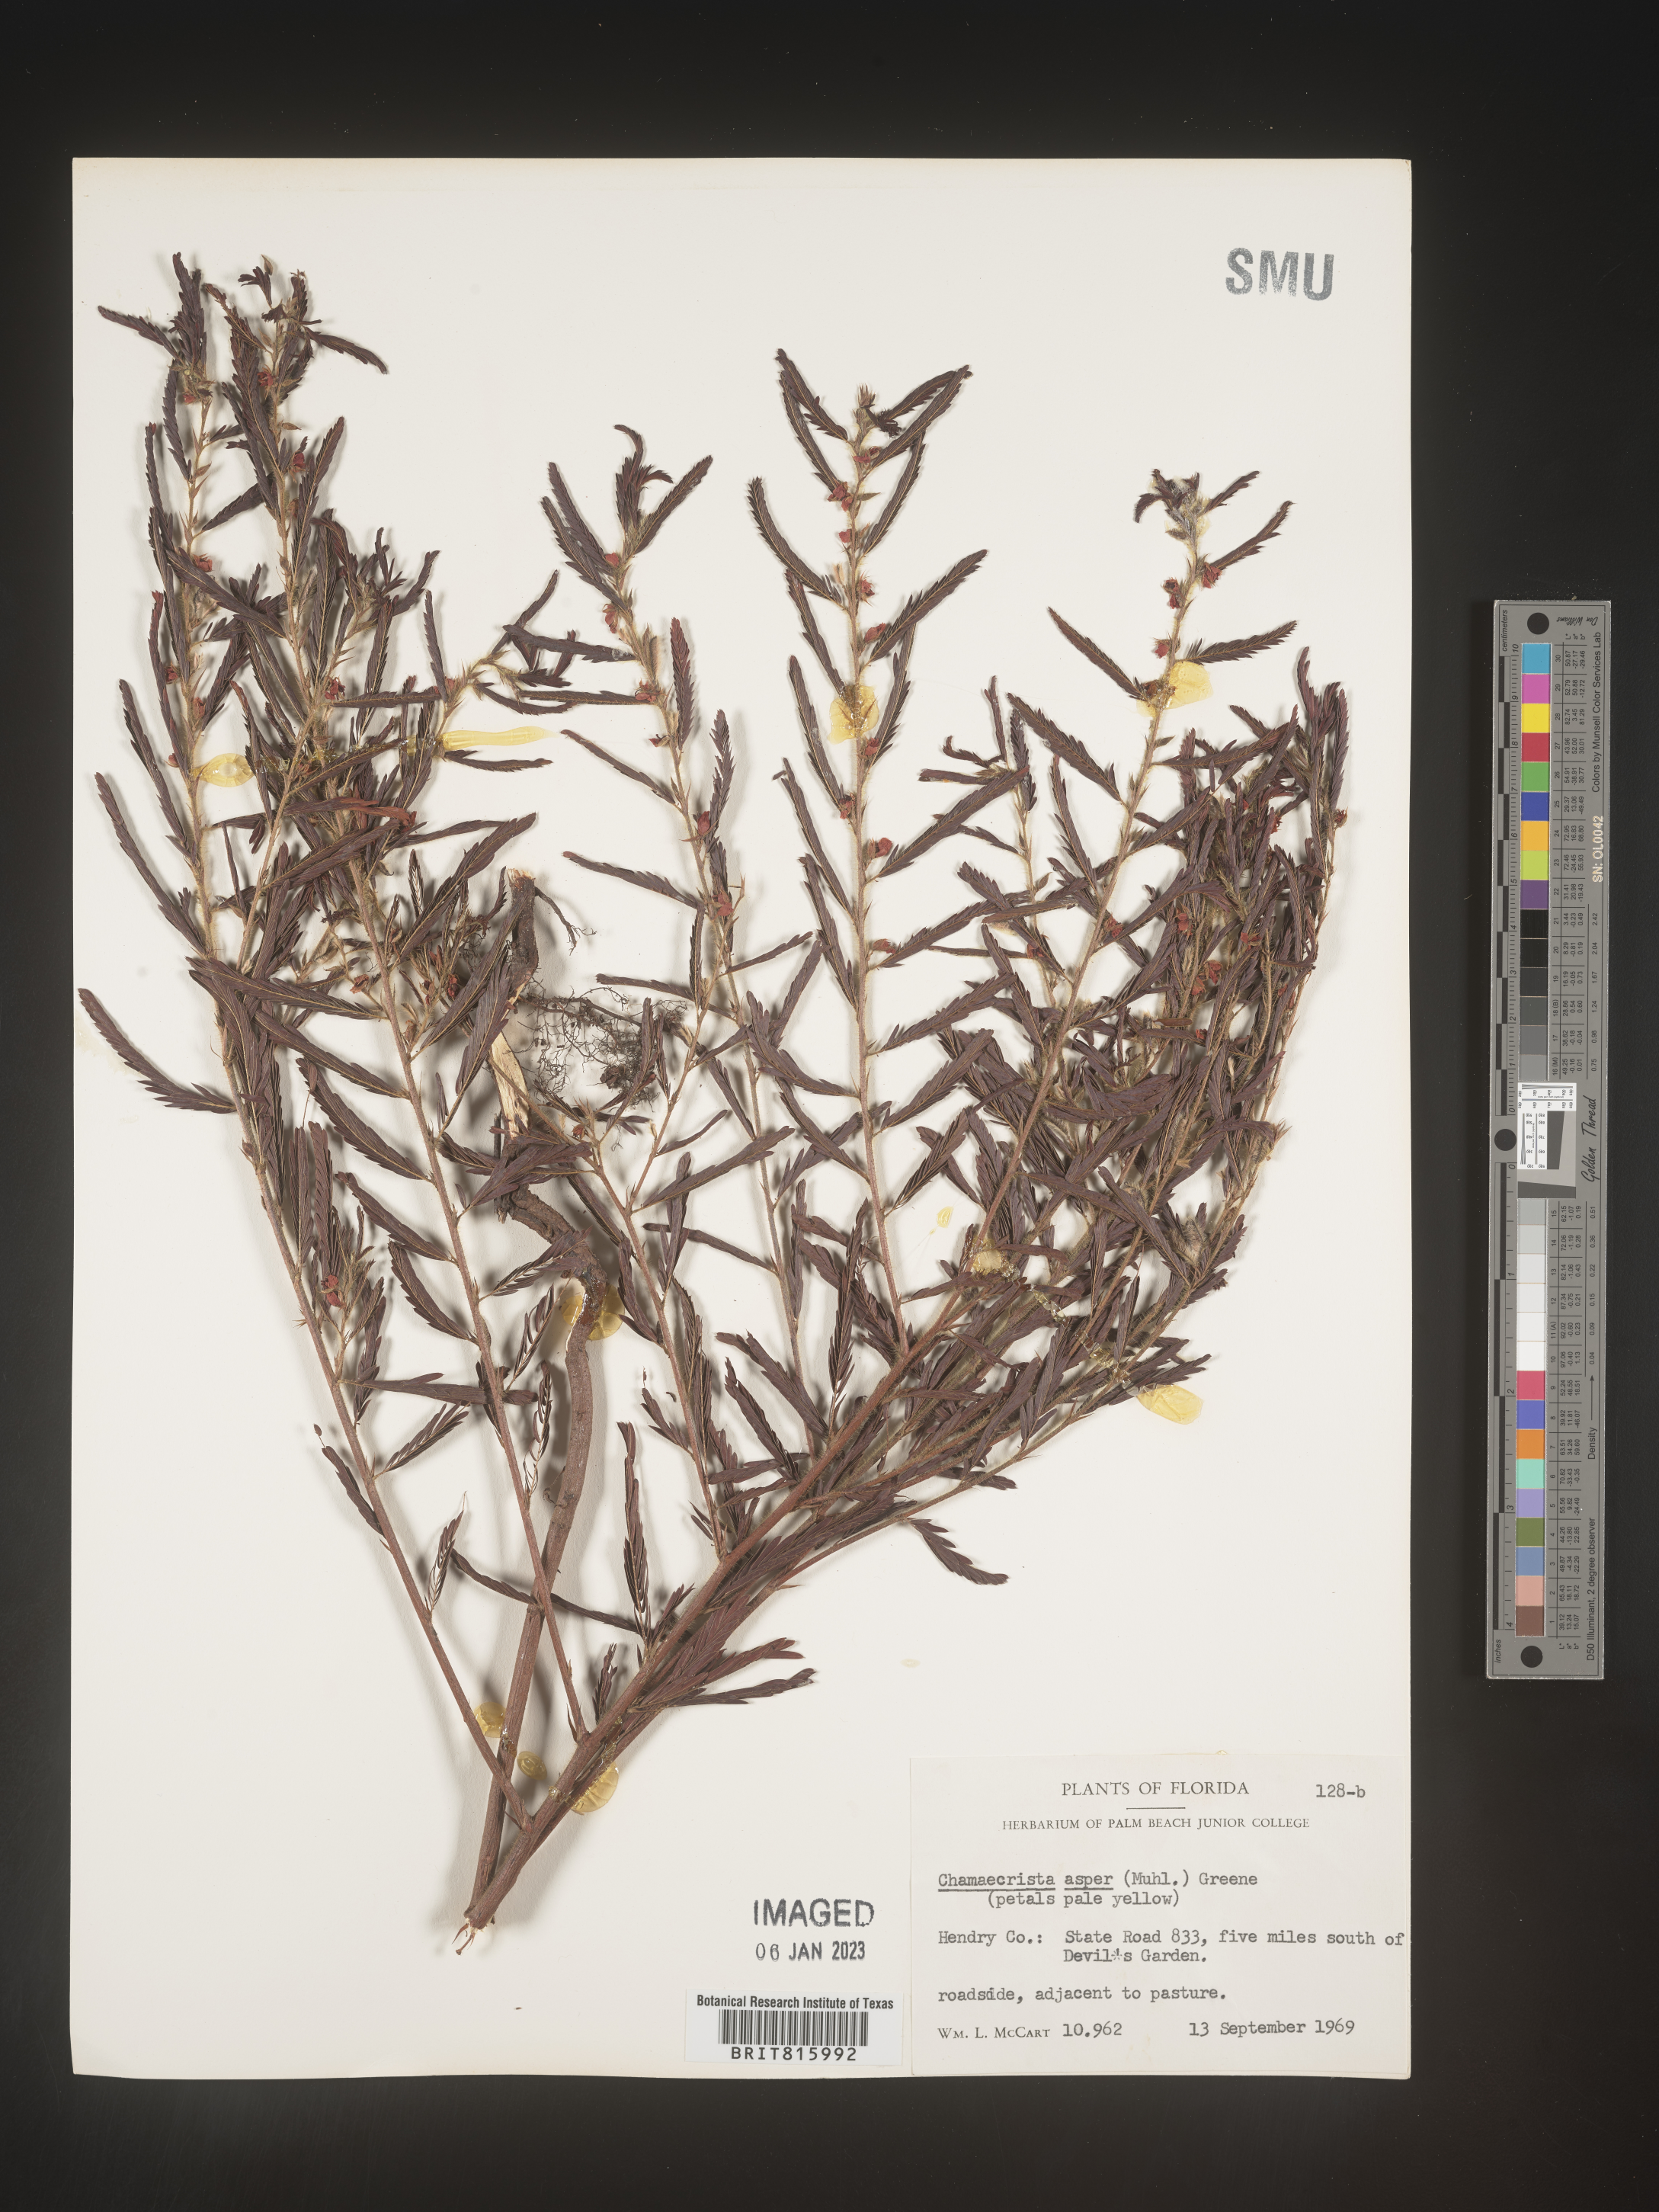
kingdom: Plantae
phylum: Tracheophyta
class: Magnoliopsida
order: Fabales
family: Fabaceae
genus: Chamaecrista
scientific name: Chamaecrista
